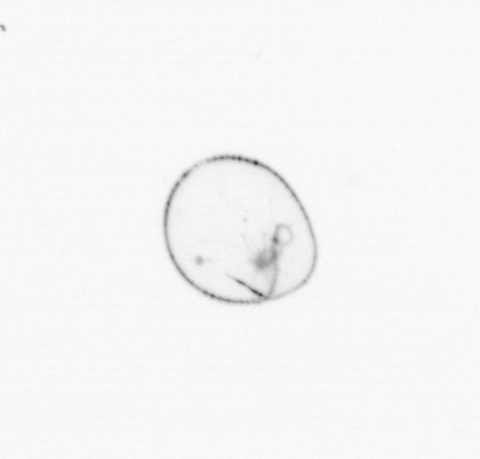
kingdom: Chromista
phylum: Myzozoa
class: Dinophyceae
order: Noctilucales
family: Noctilucaceae
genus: Noctiluca
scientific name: Noctiluca scintillans
